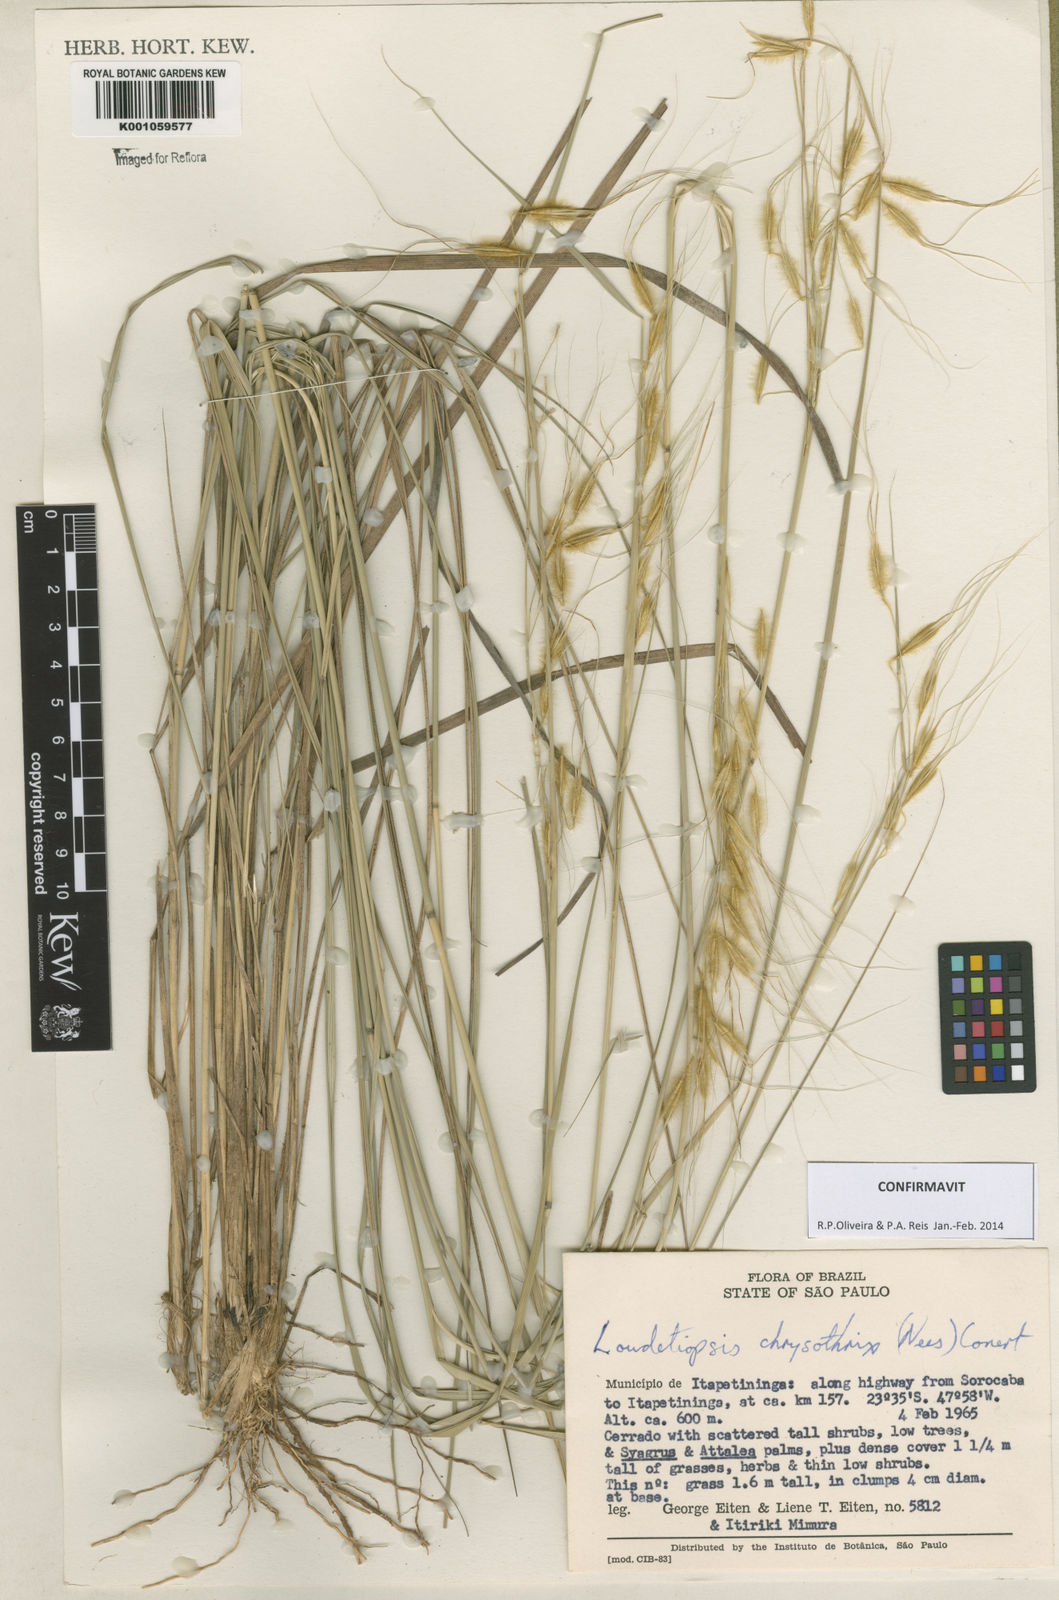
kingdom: Plantae
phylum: Tracheophyta
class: Liliopsida
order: Poales
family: Poaceae
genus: Loudetiopsis
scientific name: Loudetiopsis chrysothrix
